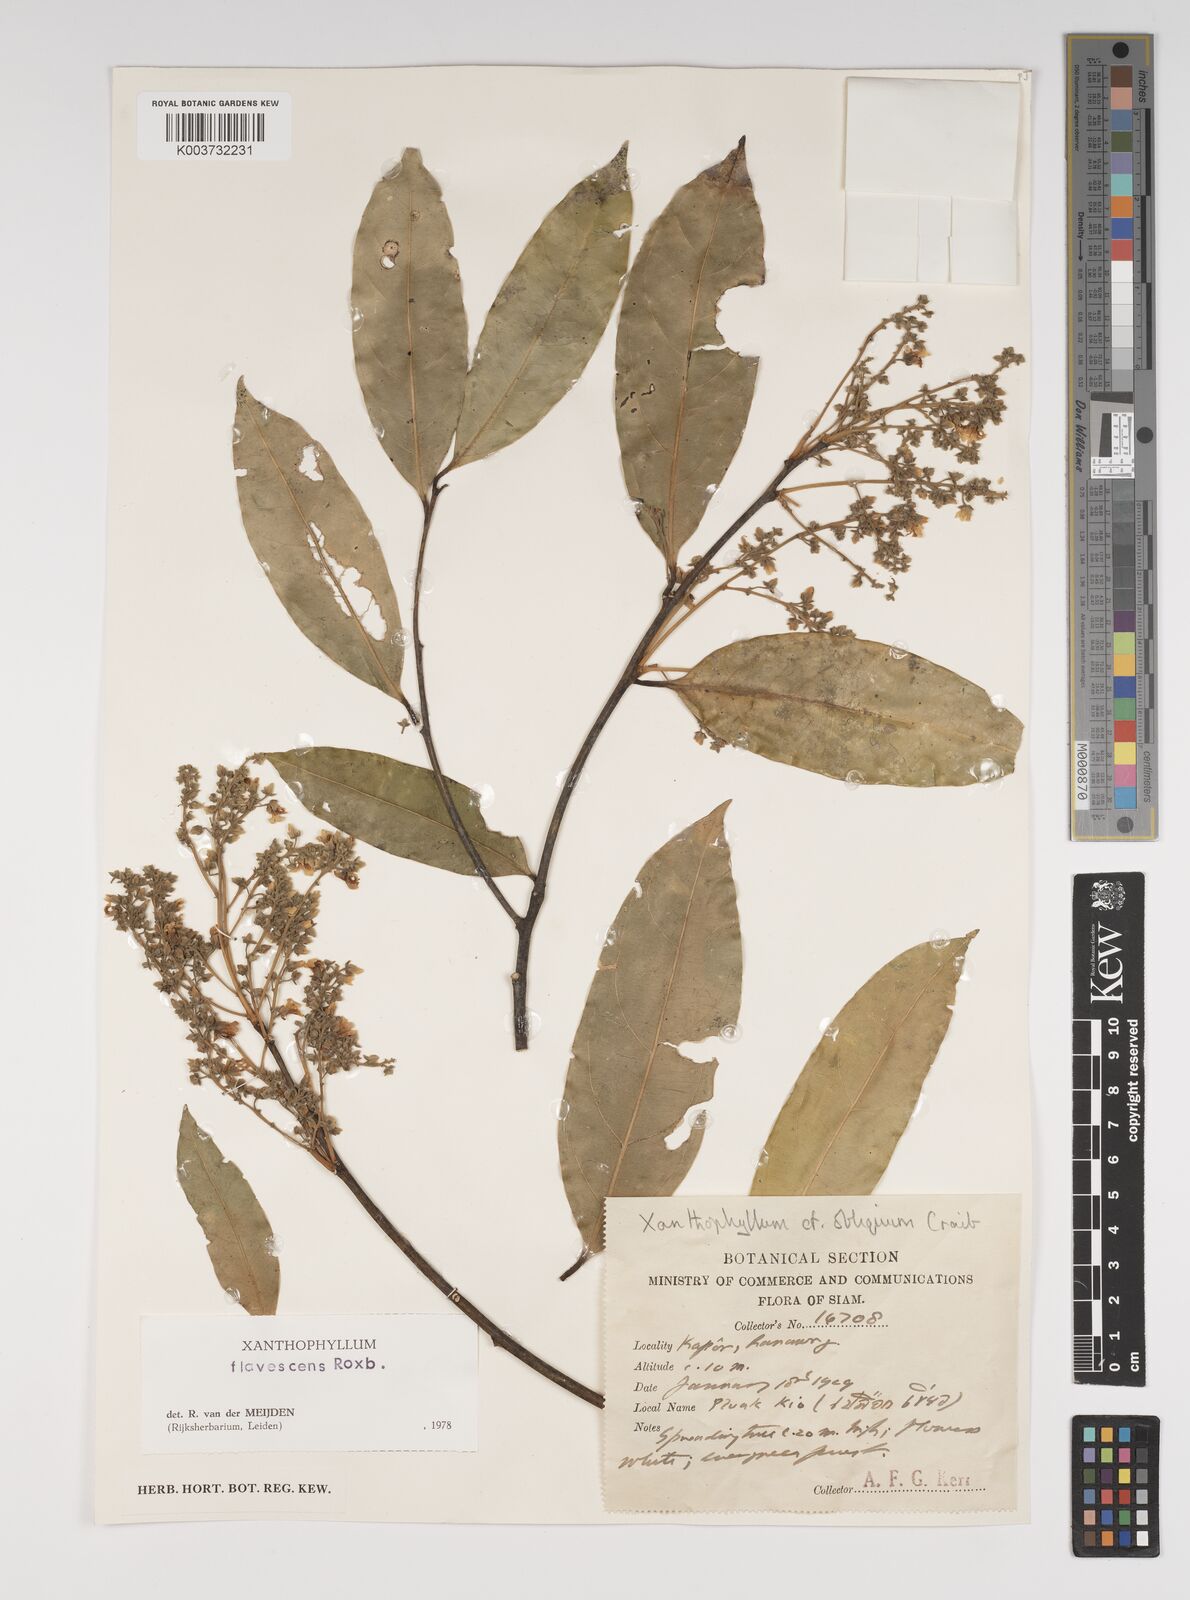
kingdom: Plantae
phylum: Tracheophyta
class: Magnoliopsida
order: Fabales
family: Polygalaceae
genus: Xanthophyllum
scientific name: Xanthophyllum flavescens
